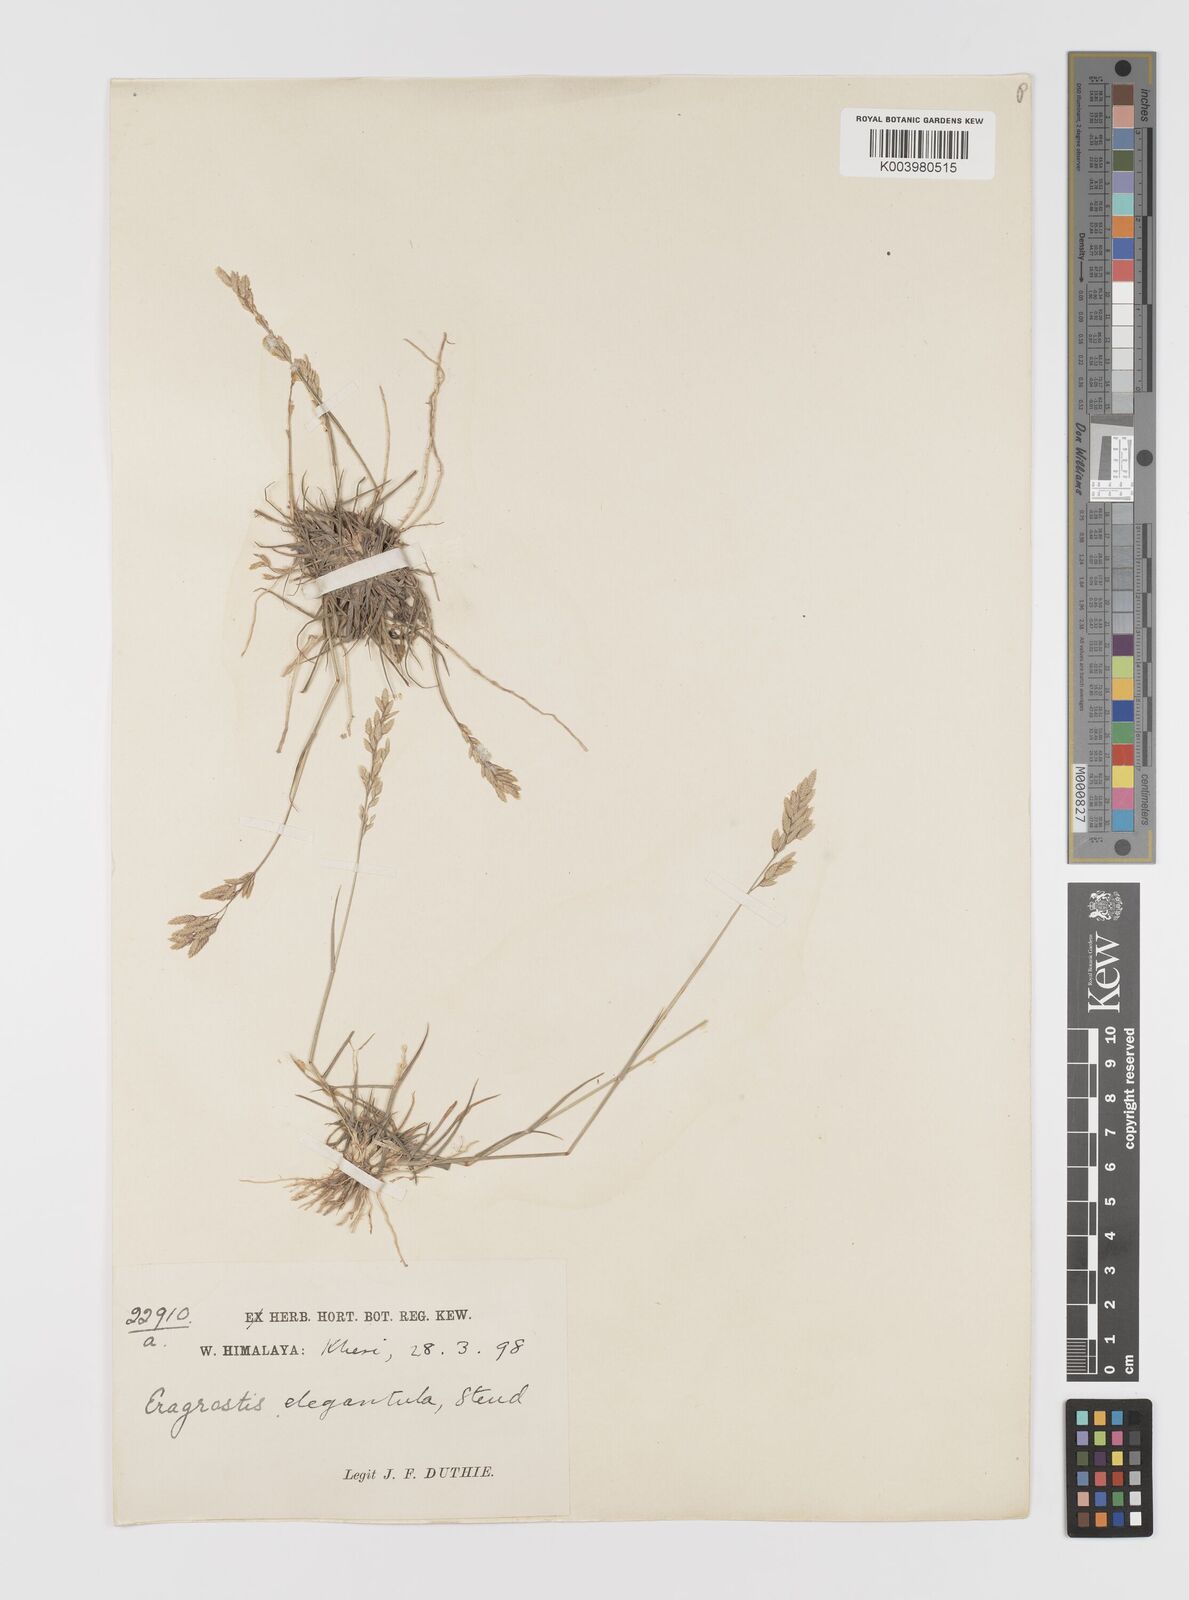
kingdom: Plantae
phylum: Tracheophyta
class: Liliopsida
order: Poales
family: Poaceae
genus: Eragrostis
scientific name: Eragrostis atrovirens
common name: Thalia lovegrass
